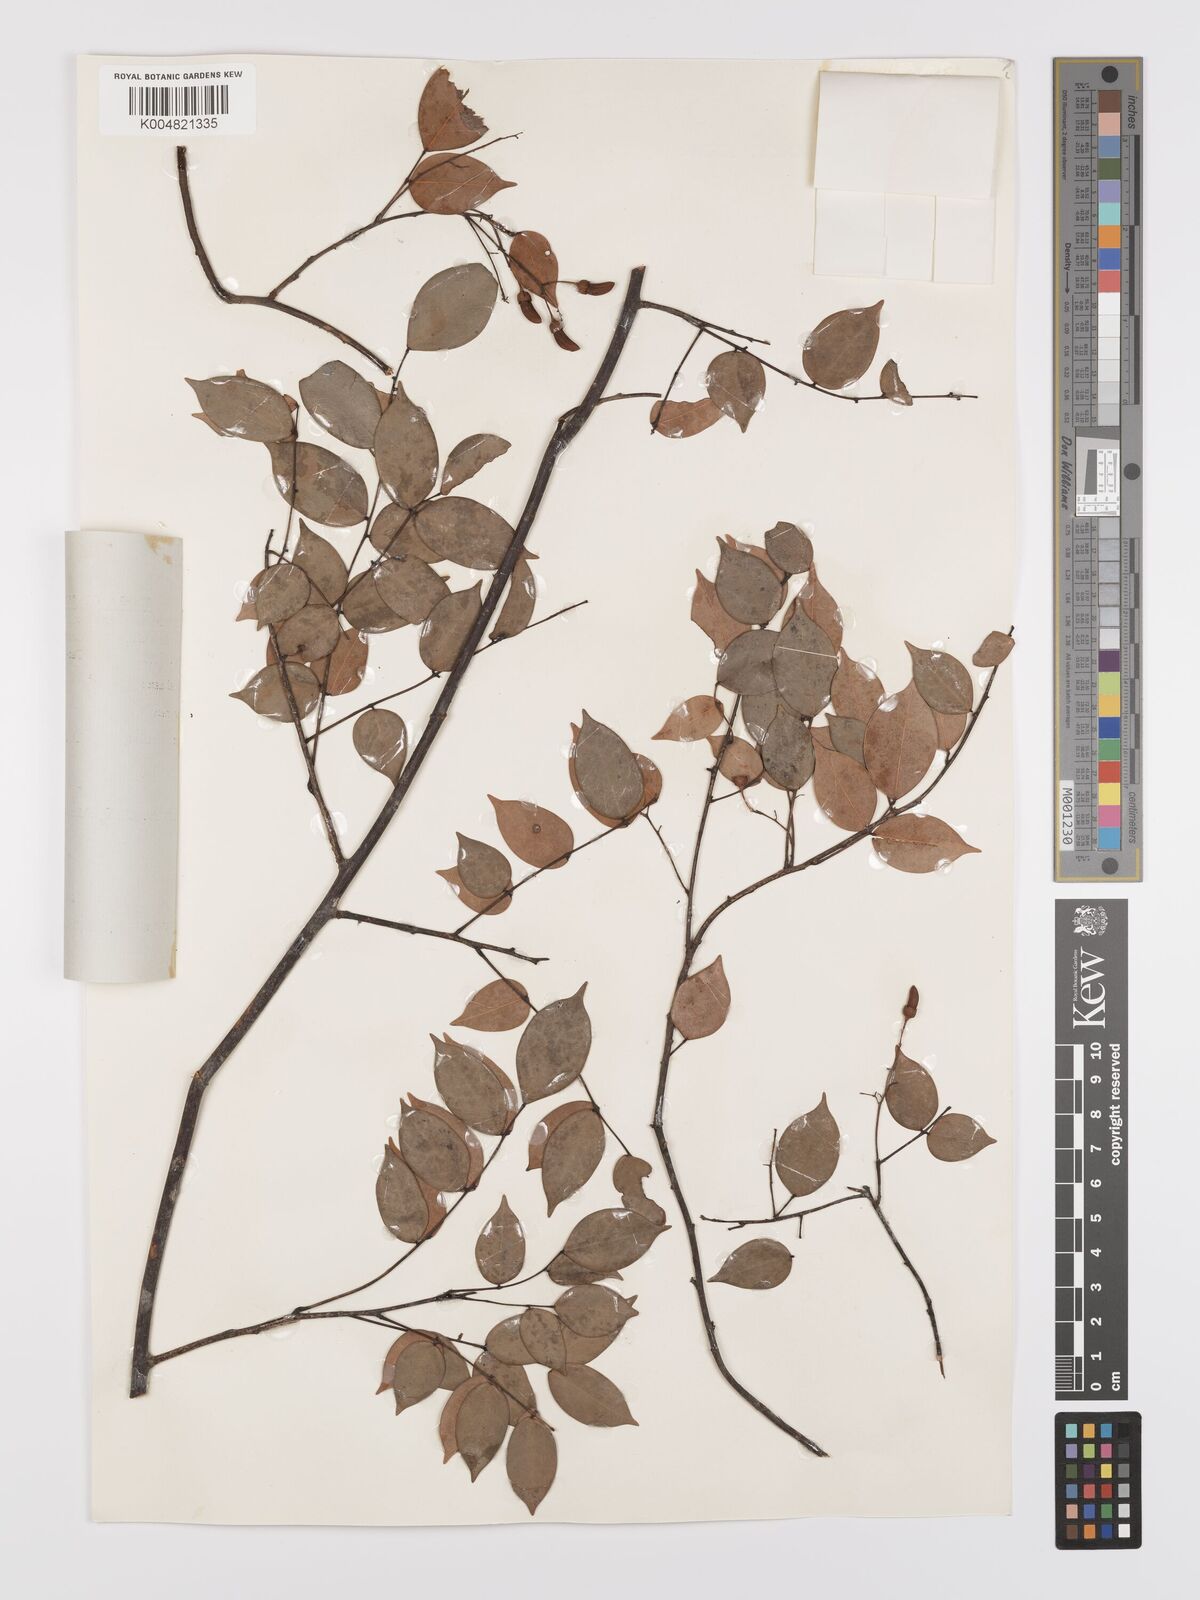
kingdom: Plantae
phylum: Tracheophyta
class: Magnoliopsida
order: Oxalidales
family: Connaraceae
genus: Rourea
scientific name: Rourea minor
